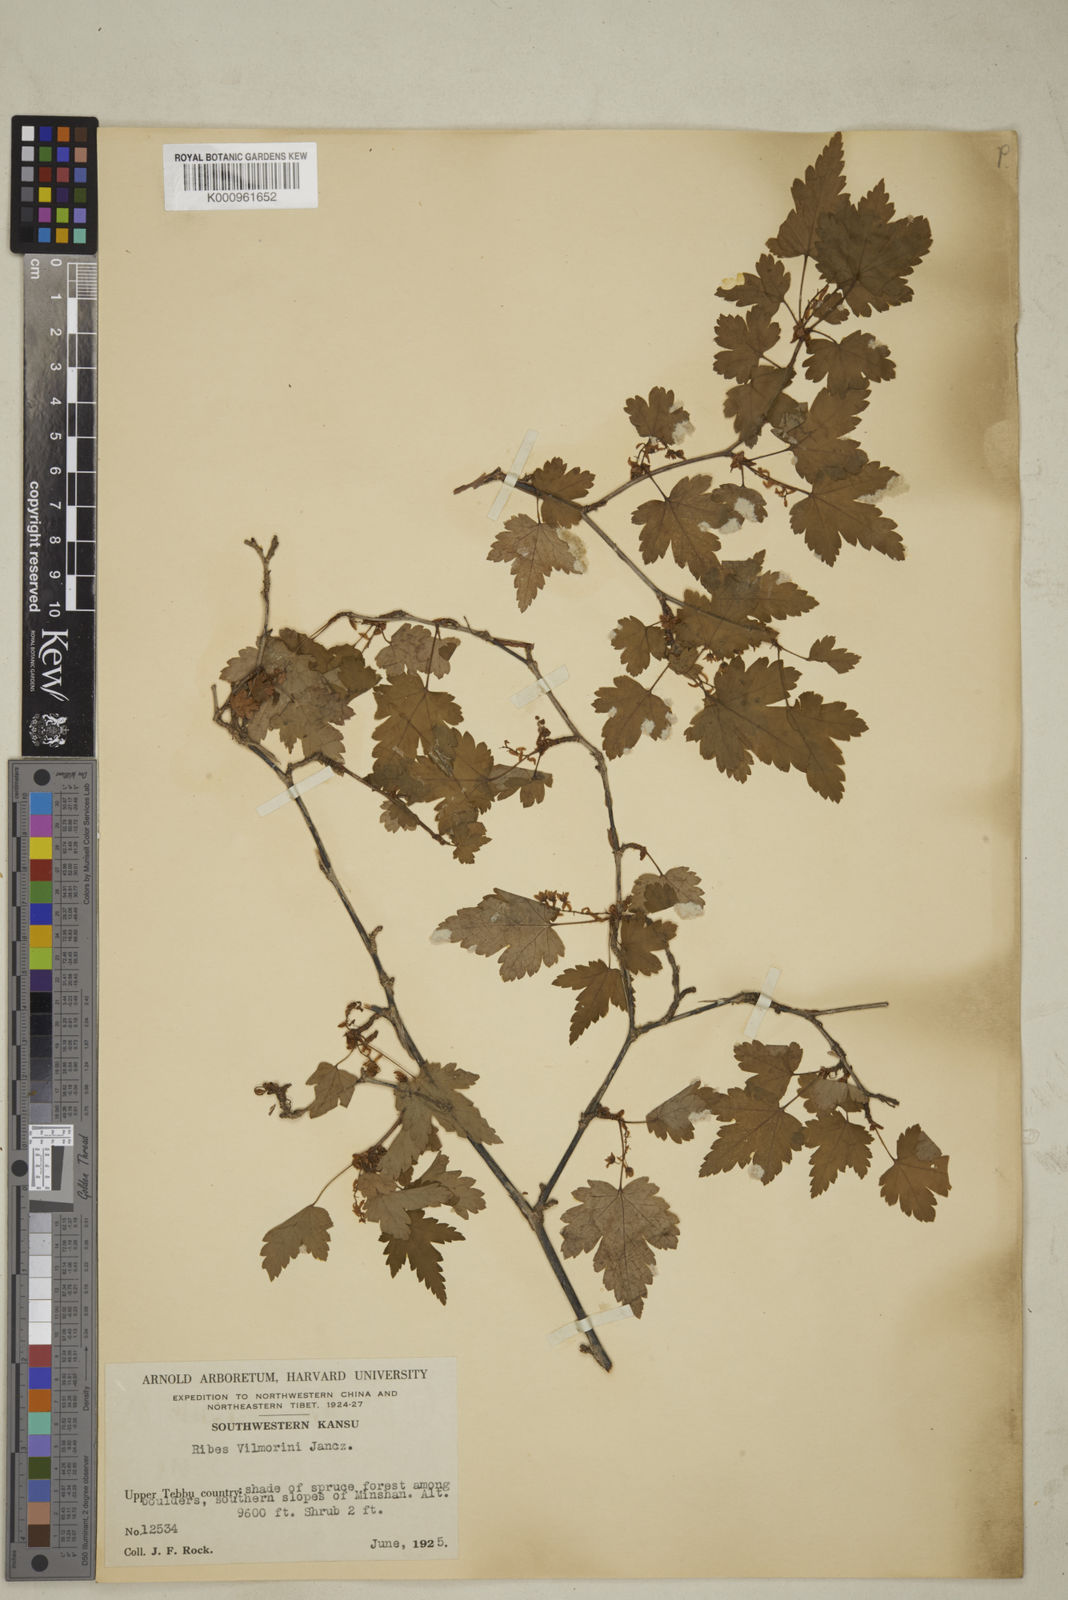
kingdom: Plantae
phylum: Tracheophyta
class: Magnoliopsida
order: Saxifragales
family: Grossulariaceae
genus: Ribes
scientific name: Ribes vilmorinii
